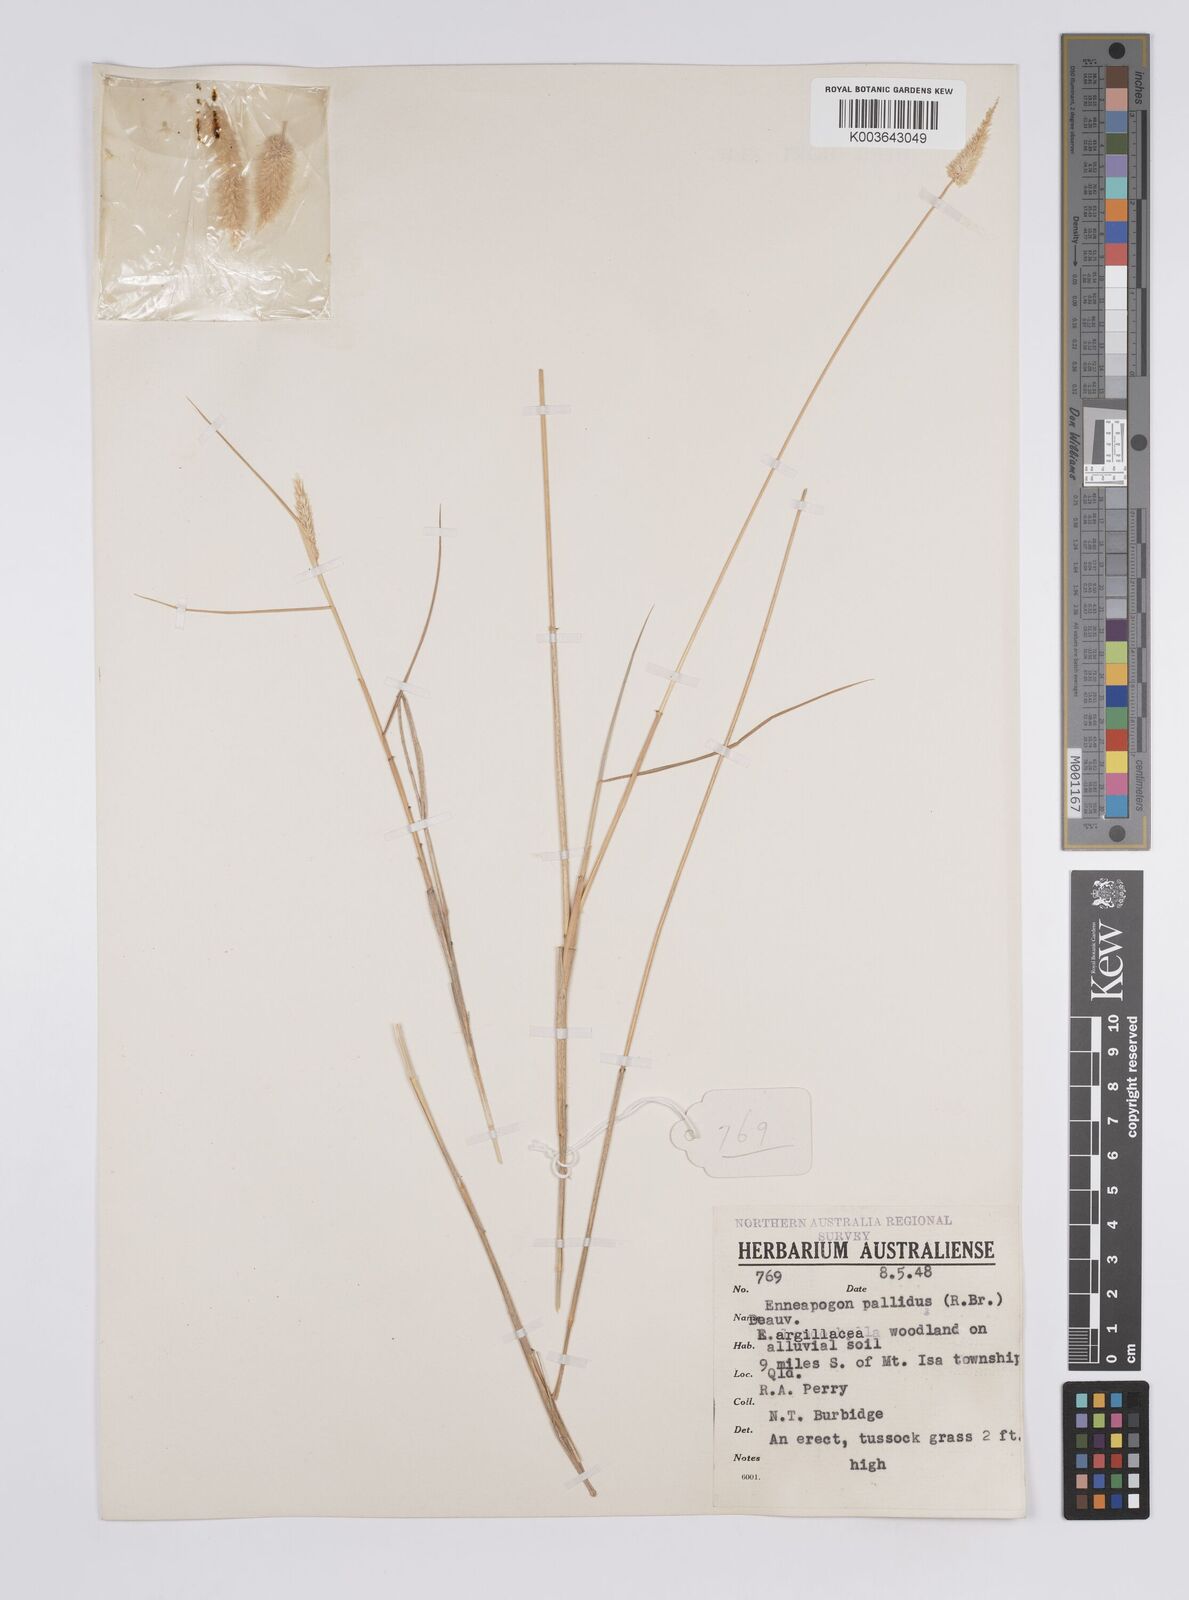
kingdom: Plantae
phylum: Tracheophyta
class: Liliopsida
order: Poales
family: Poaceae
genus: Enneapogon
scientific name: Enneapogon pallidus
